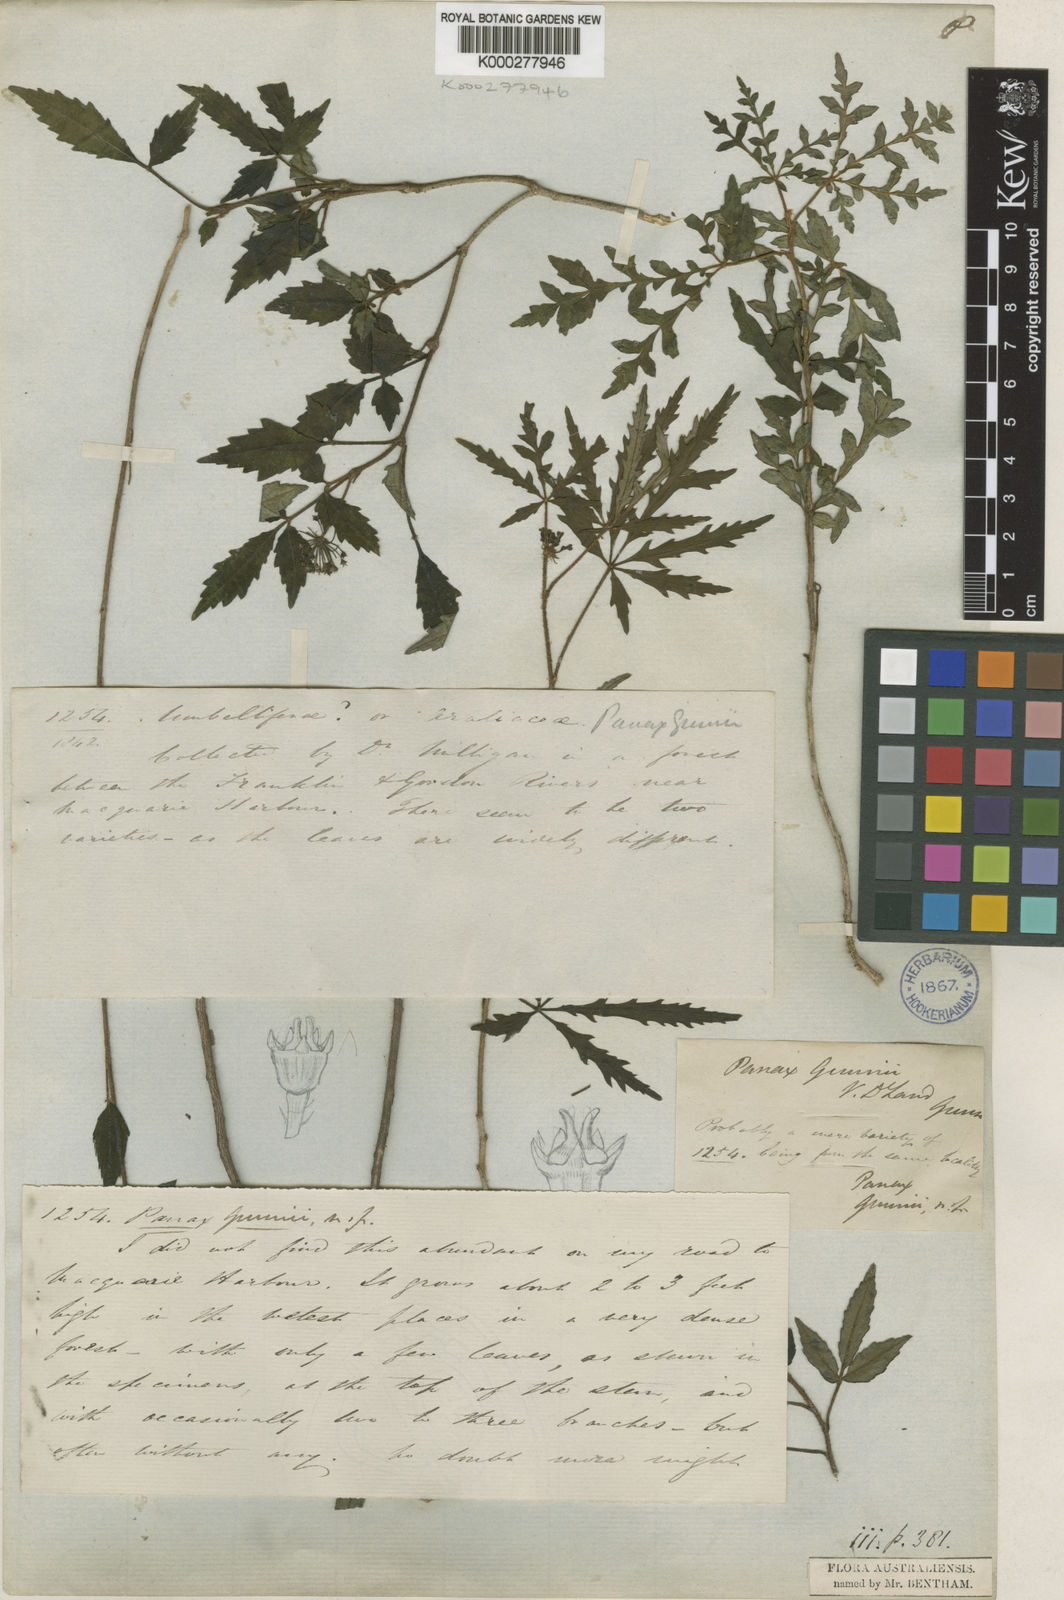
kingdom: Plantae
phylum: Tracheophyta
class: Magnoliopsida
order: Apiales
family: Araliaceae
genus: Raukaua
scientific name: Raukaua gunnii
